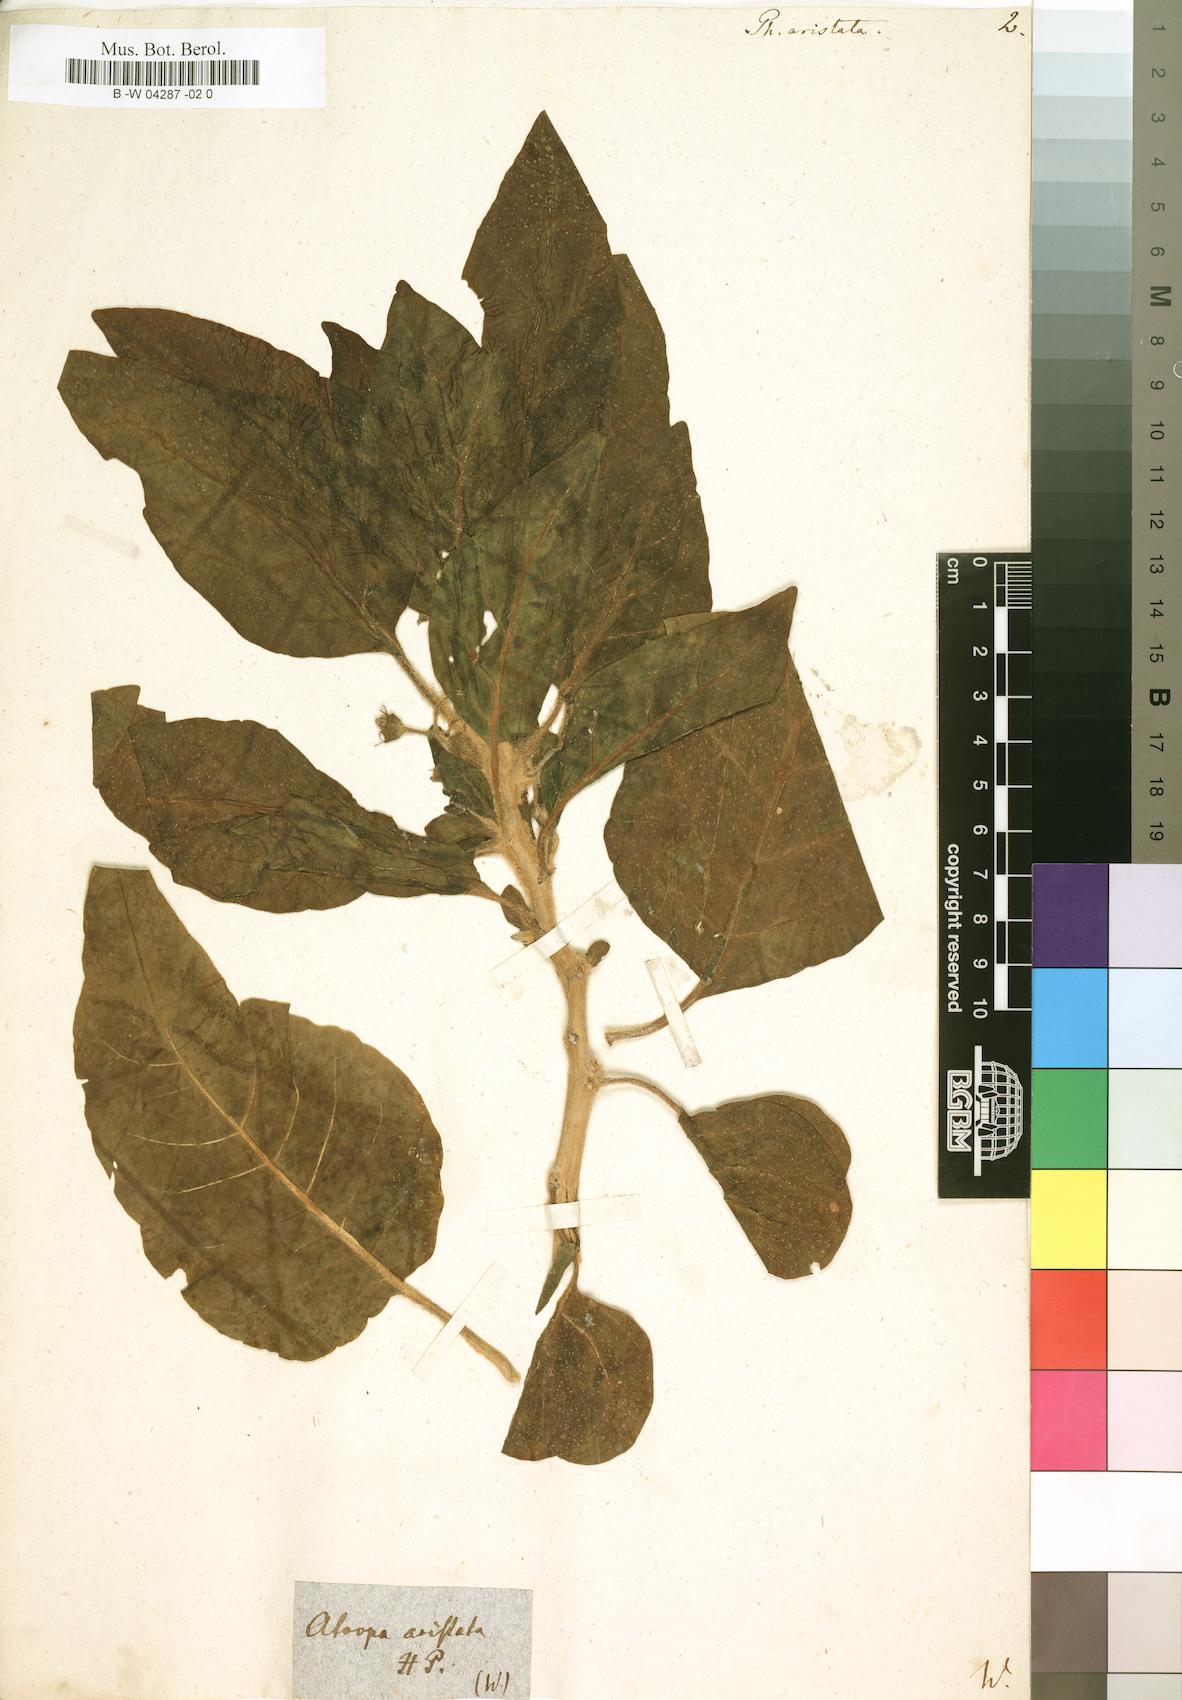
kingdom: Plantae
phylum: Tracheophyta
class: Magnoliopsida
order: Solanales
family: Solanaceae
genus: Withania
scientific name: Withania aristata
